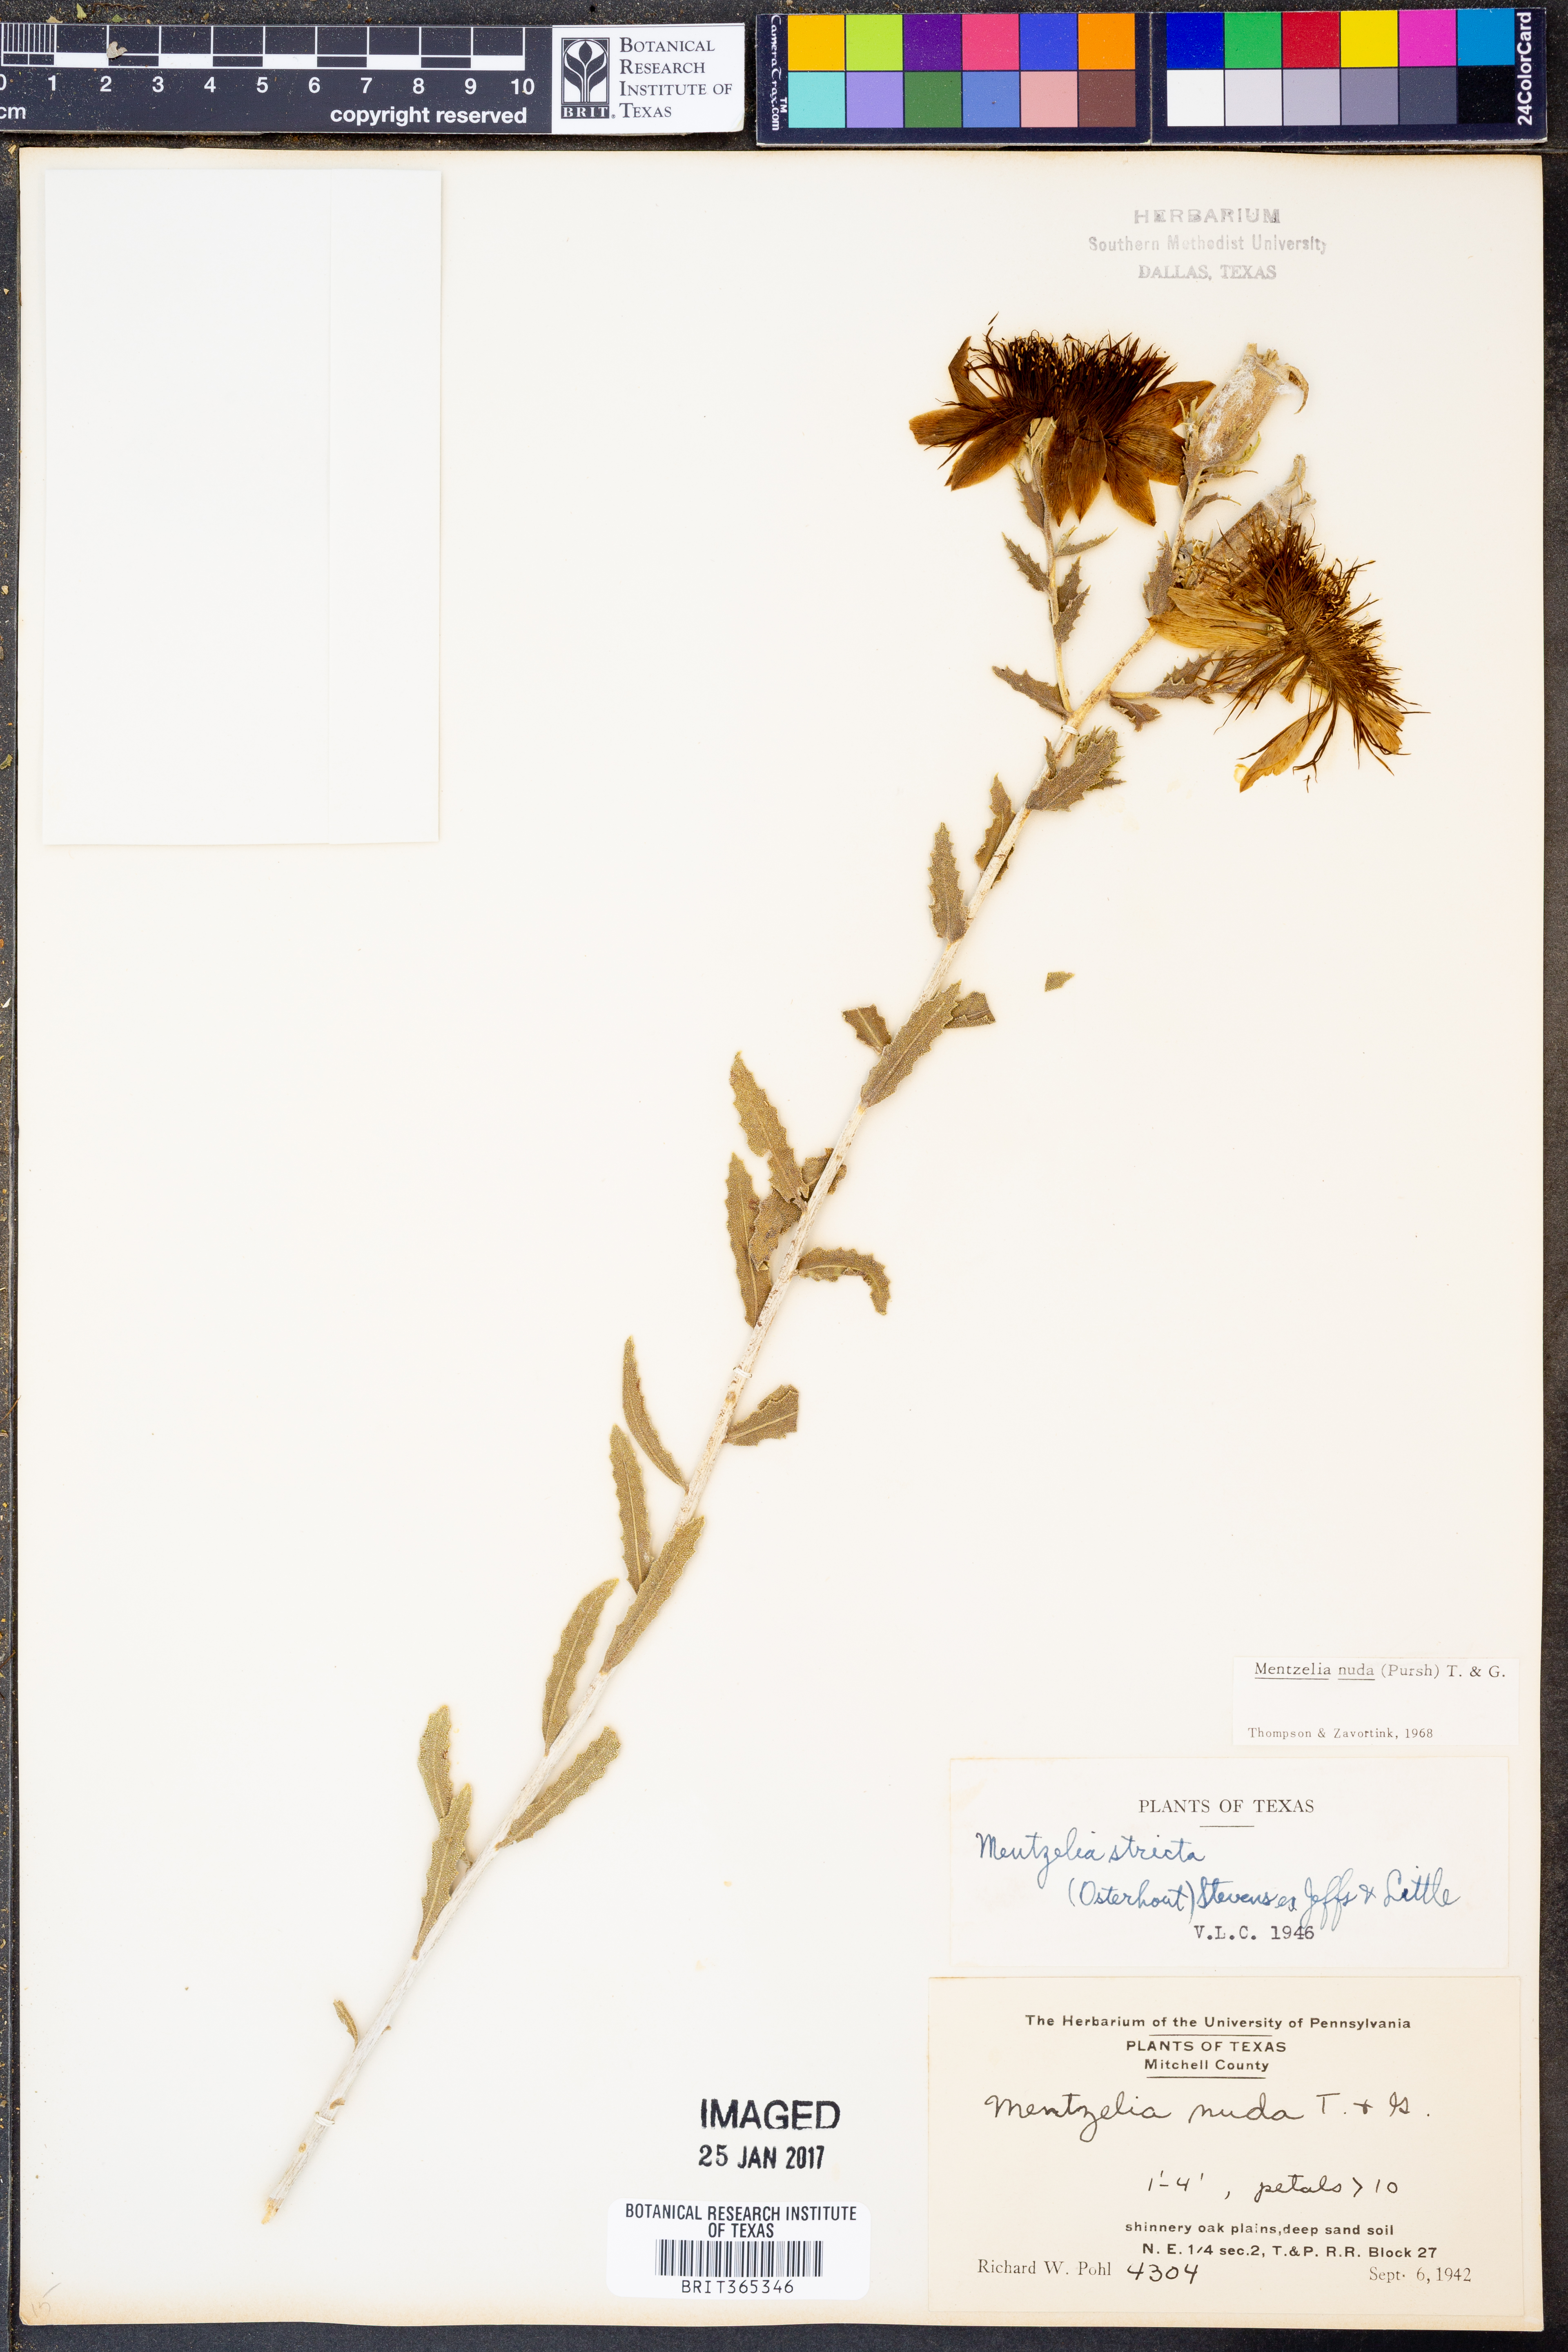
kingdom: Plantae
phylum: Tracheophyta
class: Magnoliopsida
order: Cornales
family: Loasaceae
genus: Mentzelia
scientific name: Mentzelia nuda
